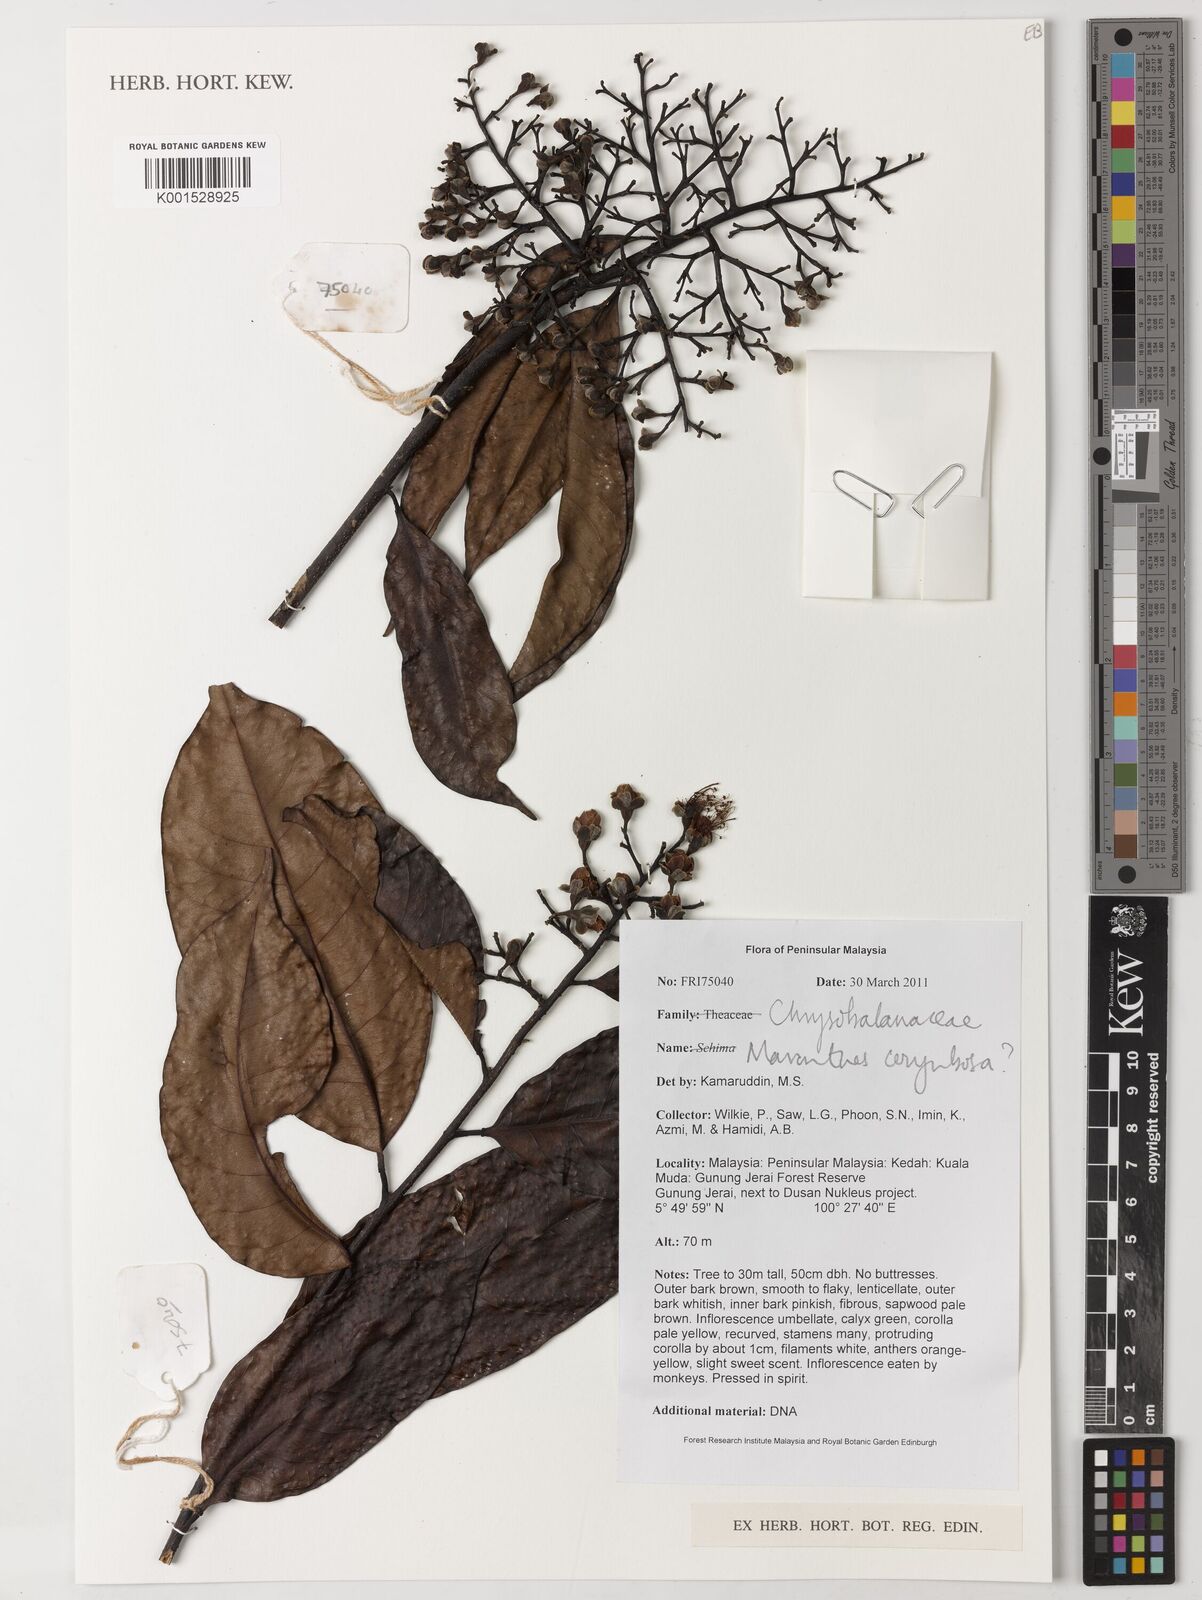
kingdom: Plantae
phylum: Tracheophyta
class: Magnoliopsida
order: Malpighiales
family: Chrysobalanaceae
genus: Maranthes
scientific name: Maranthes corymbosa
